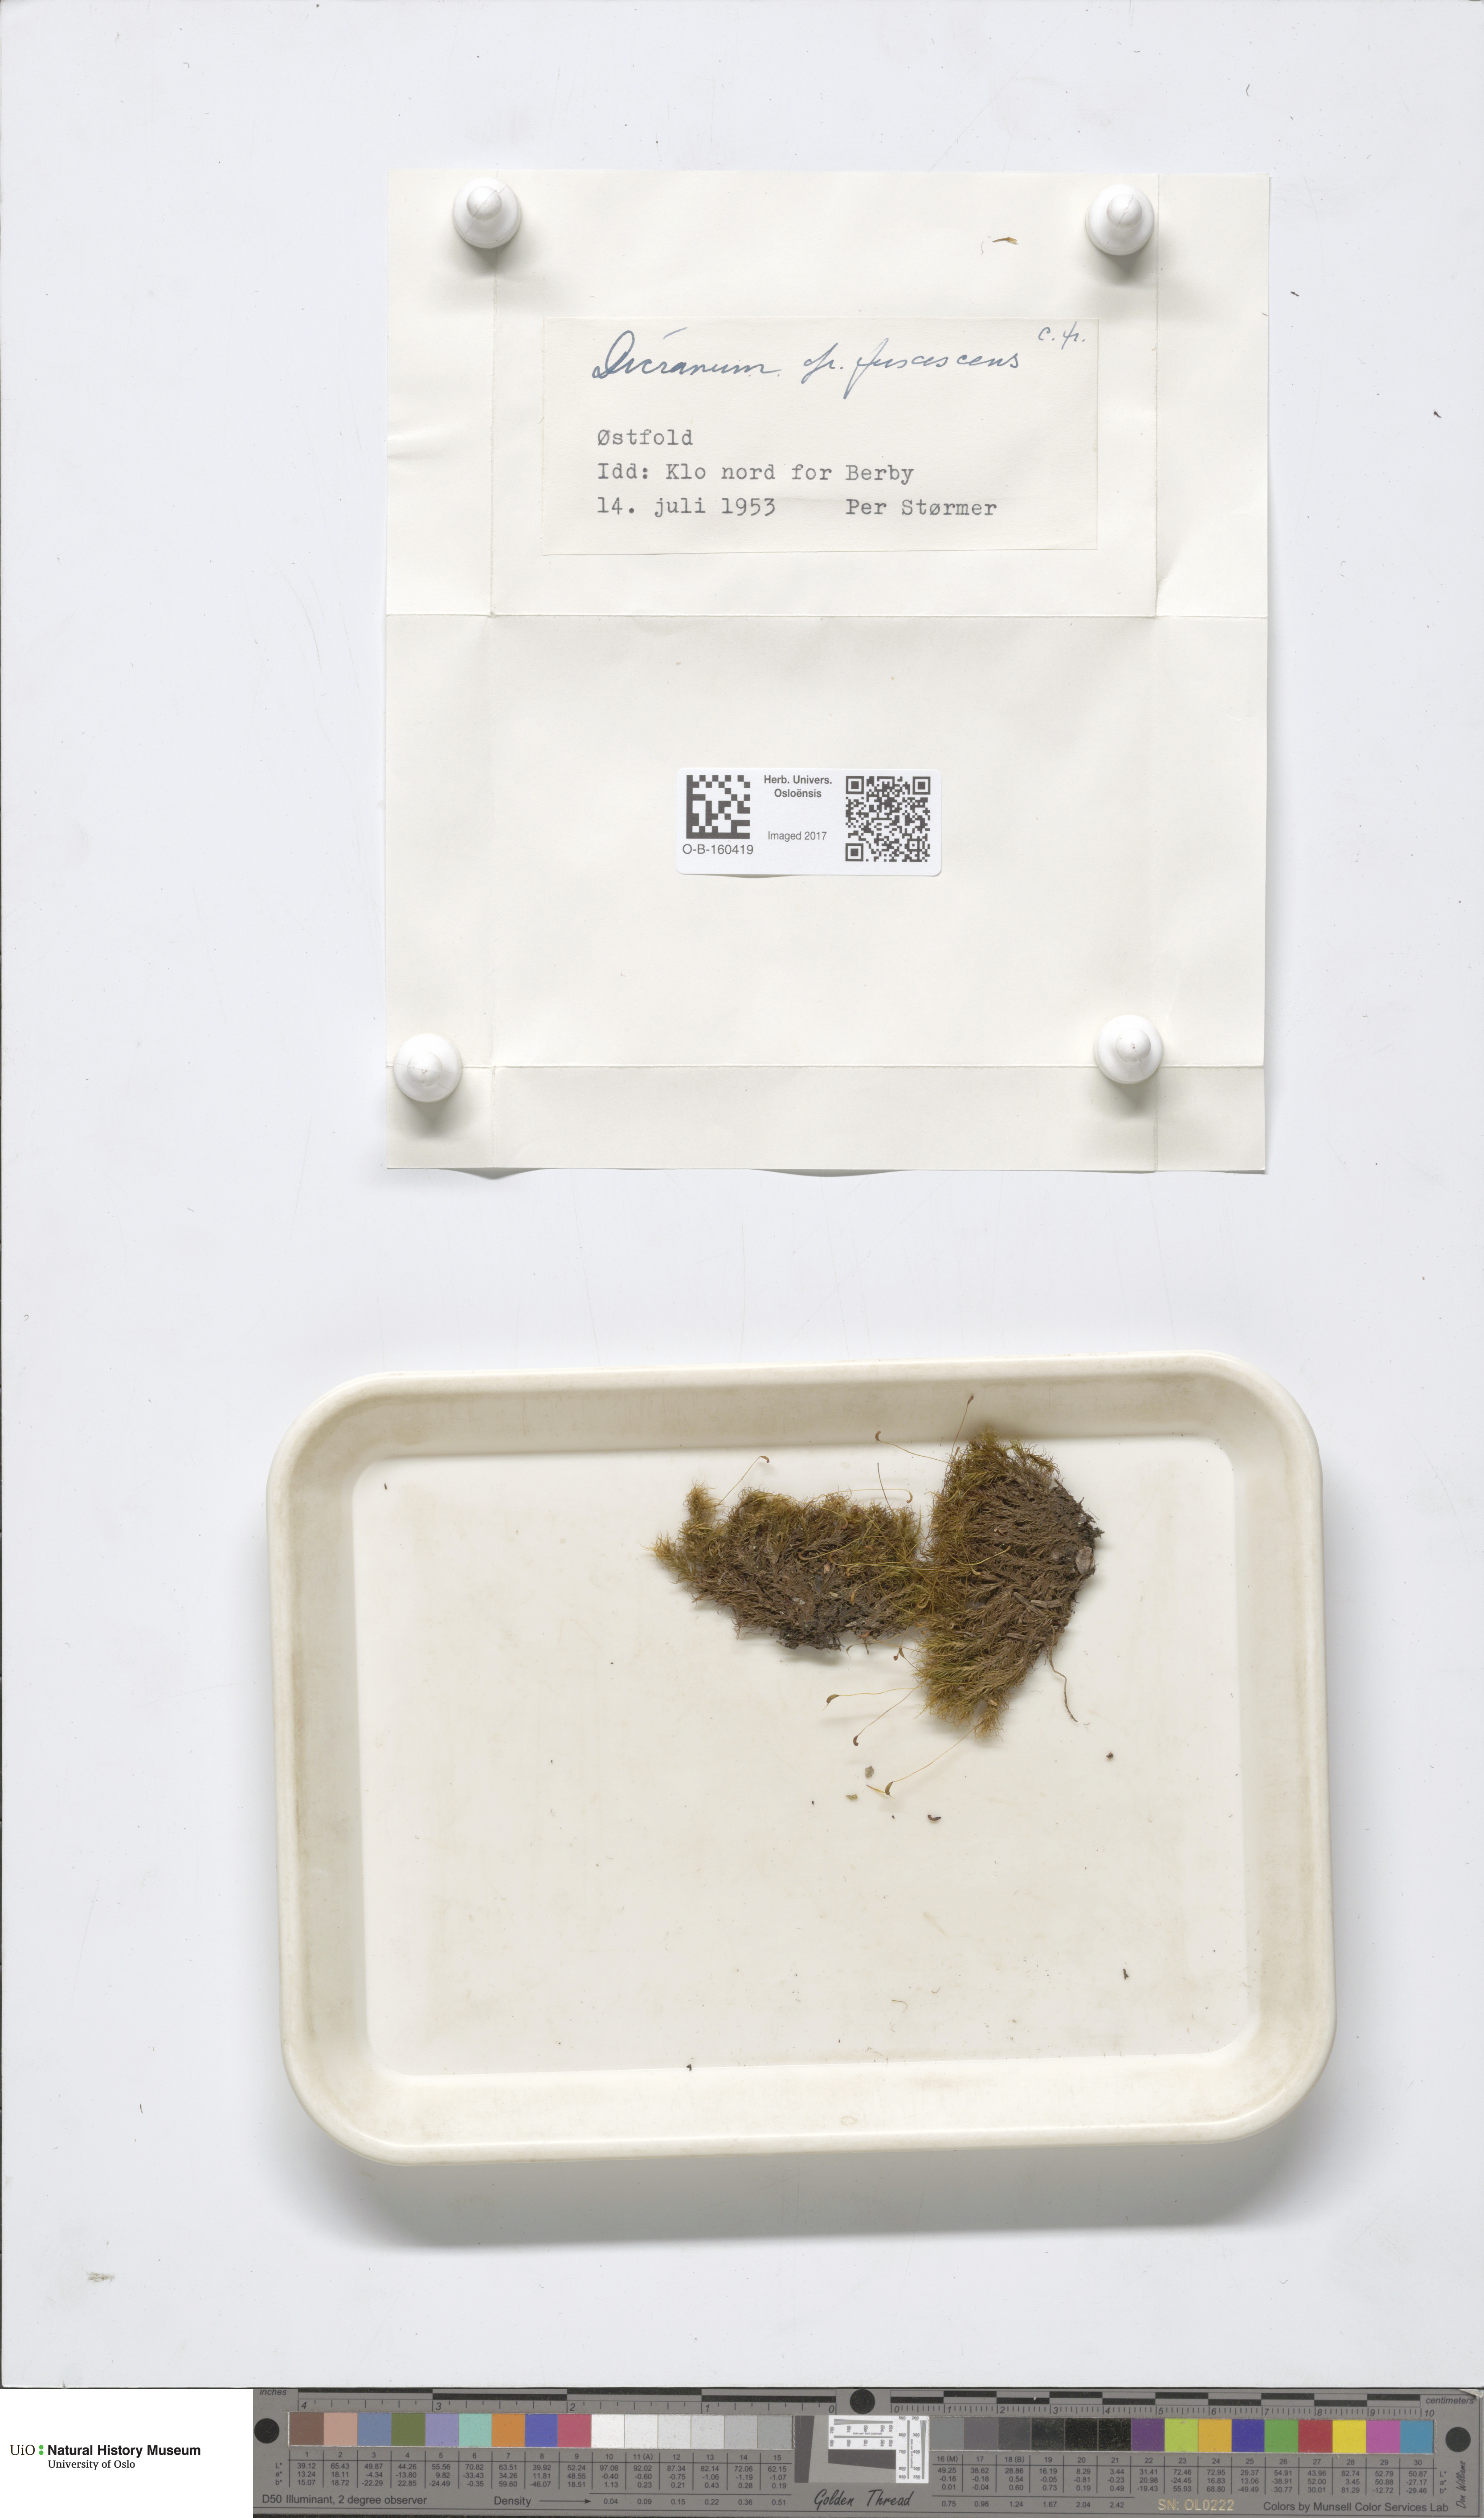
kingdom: Plantae
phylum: Bryophyta
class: Bryopsida
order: Dicranales
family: Dicranaceae
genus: Dicranum
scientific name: Dicranum fuscescens
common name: Curly heron's-bill moss
